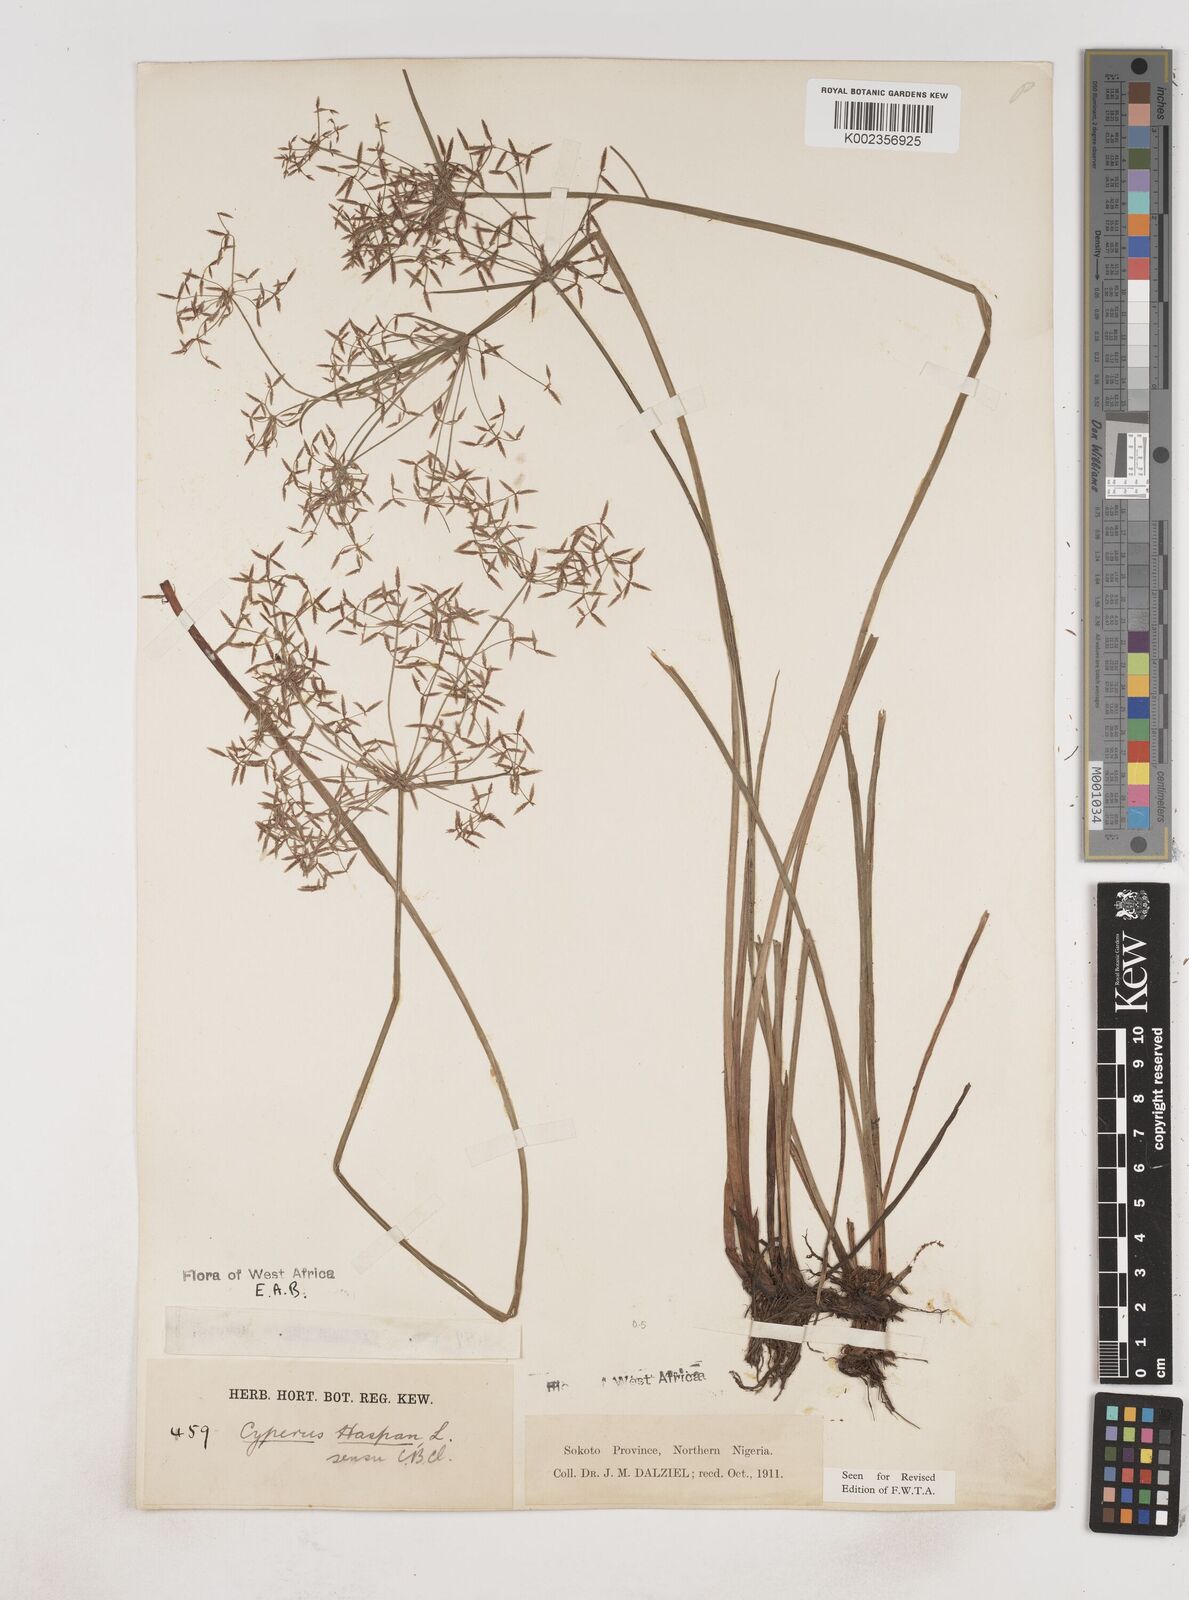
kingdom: Plantae
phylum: Tracheophyta
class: Liliopsida
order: Poales
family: Cyperaceae
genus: Cyperus
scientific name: Cyperus haspan
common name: Haspan flatsedge
